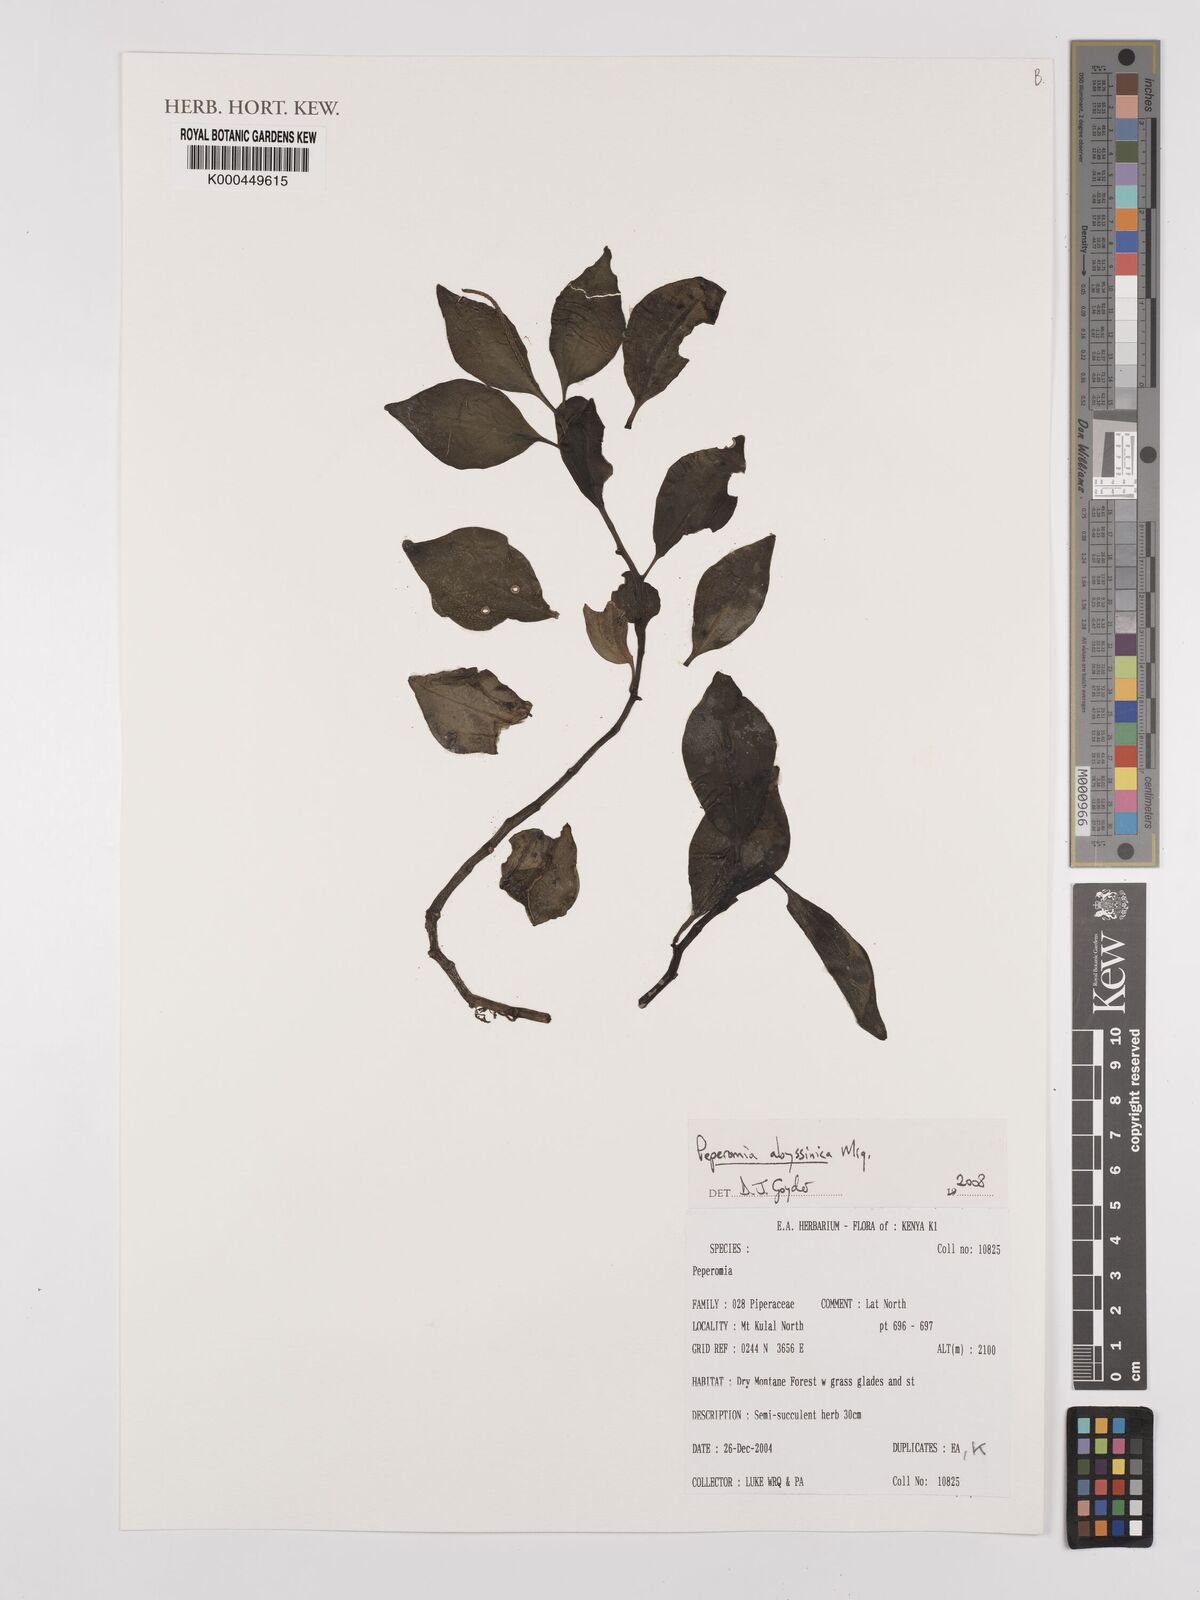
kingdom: Plantae
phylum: Tracheophyta
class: Magnoliopsida
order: Piperales
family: Piperaceae
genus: Peperomia
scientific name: Peperomia abyssinica
